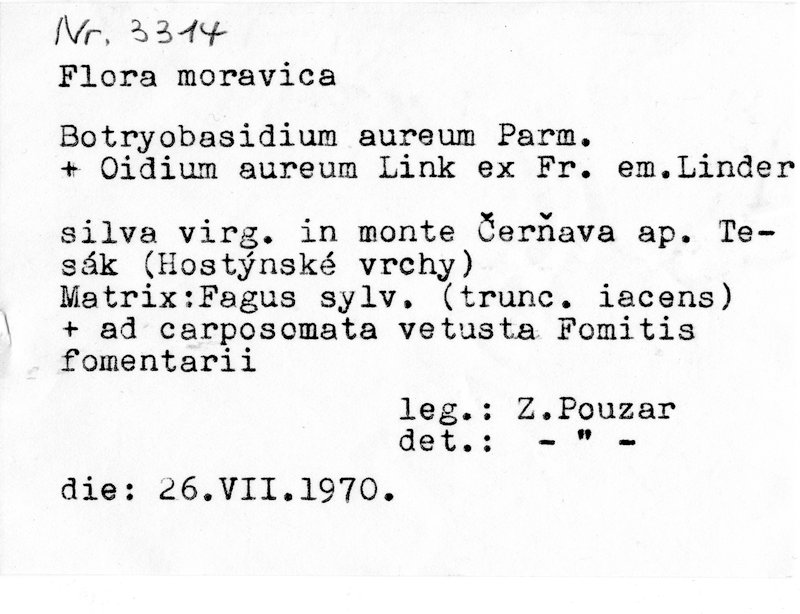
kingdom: Fungi
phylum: Basidiomycota
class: Agaricomycetes
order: Cantharellales
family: Botryobasidiaceae
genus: Botryobasidium
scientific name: Botryobasidium aureum
